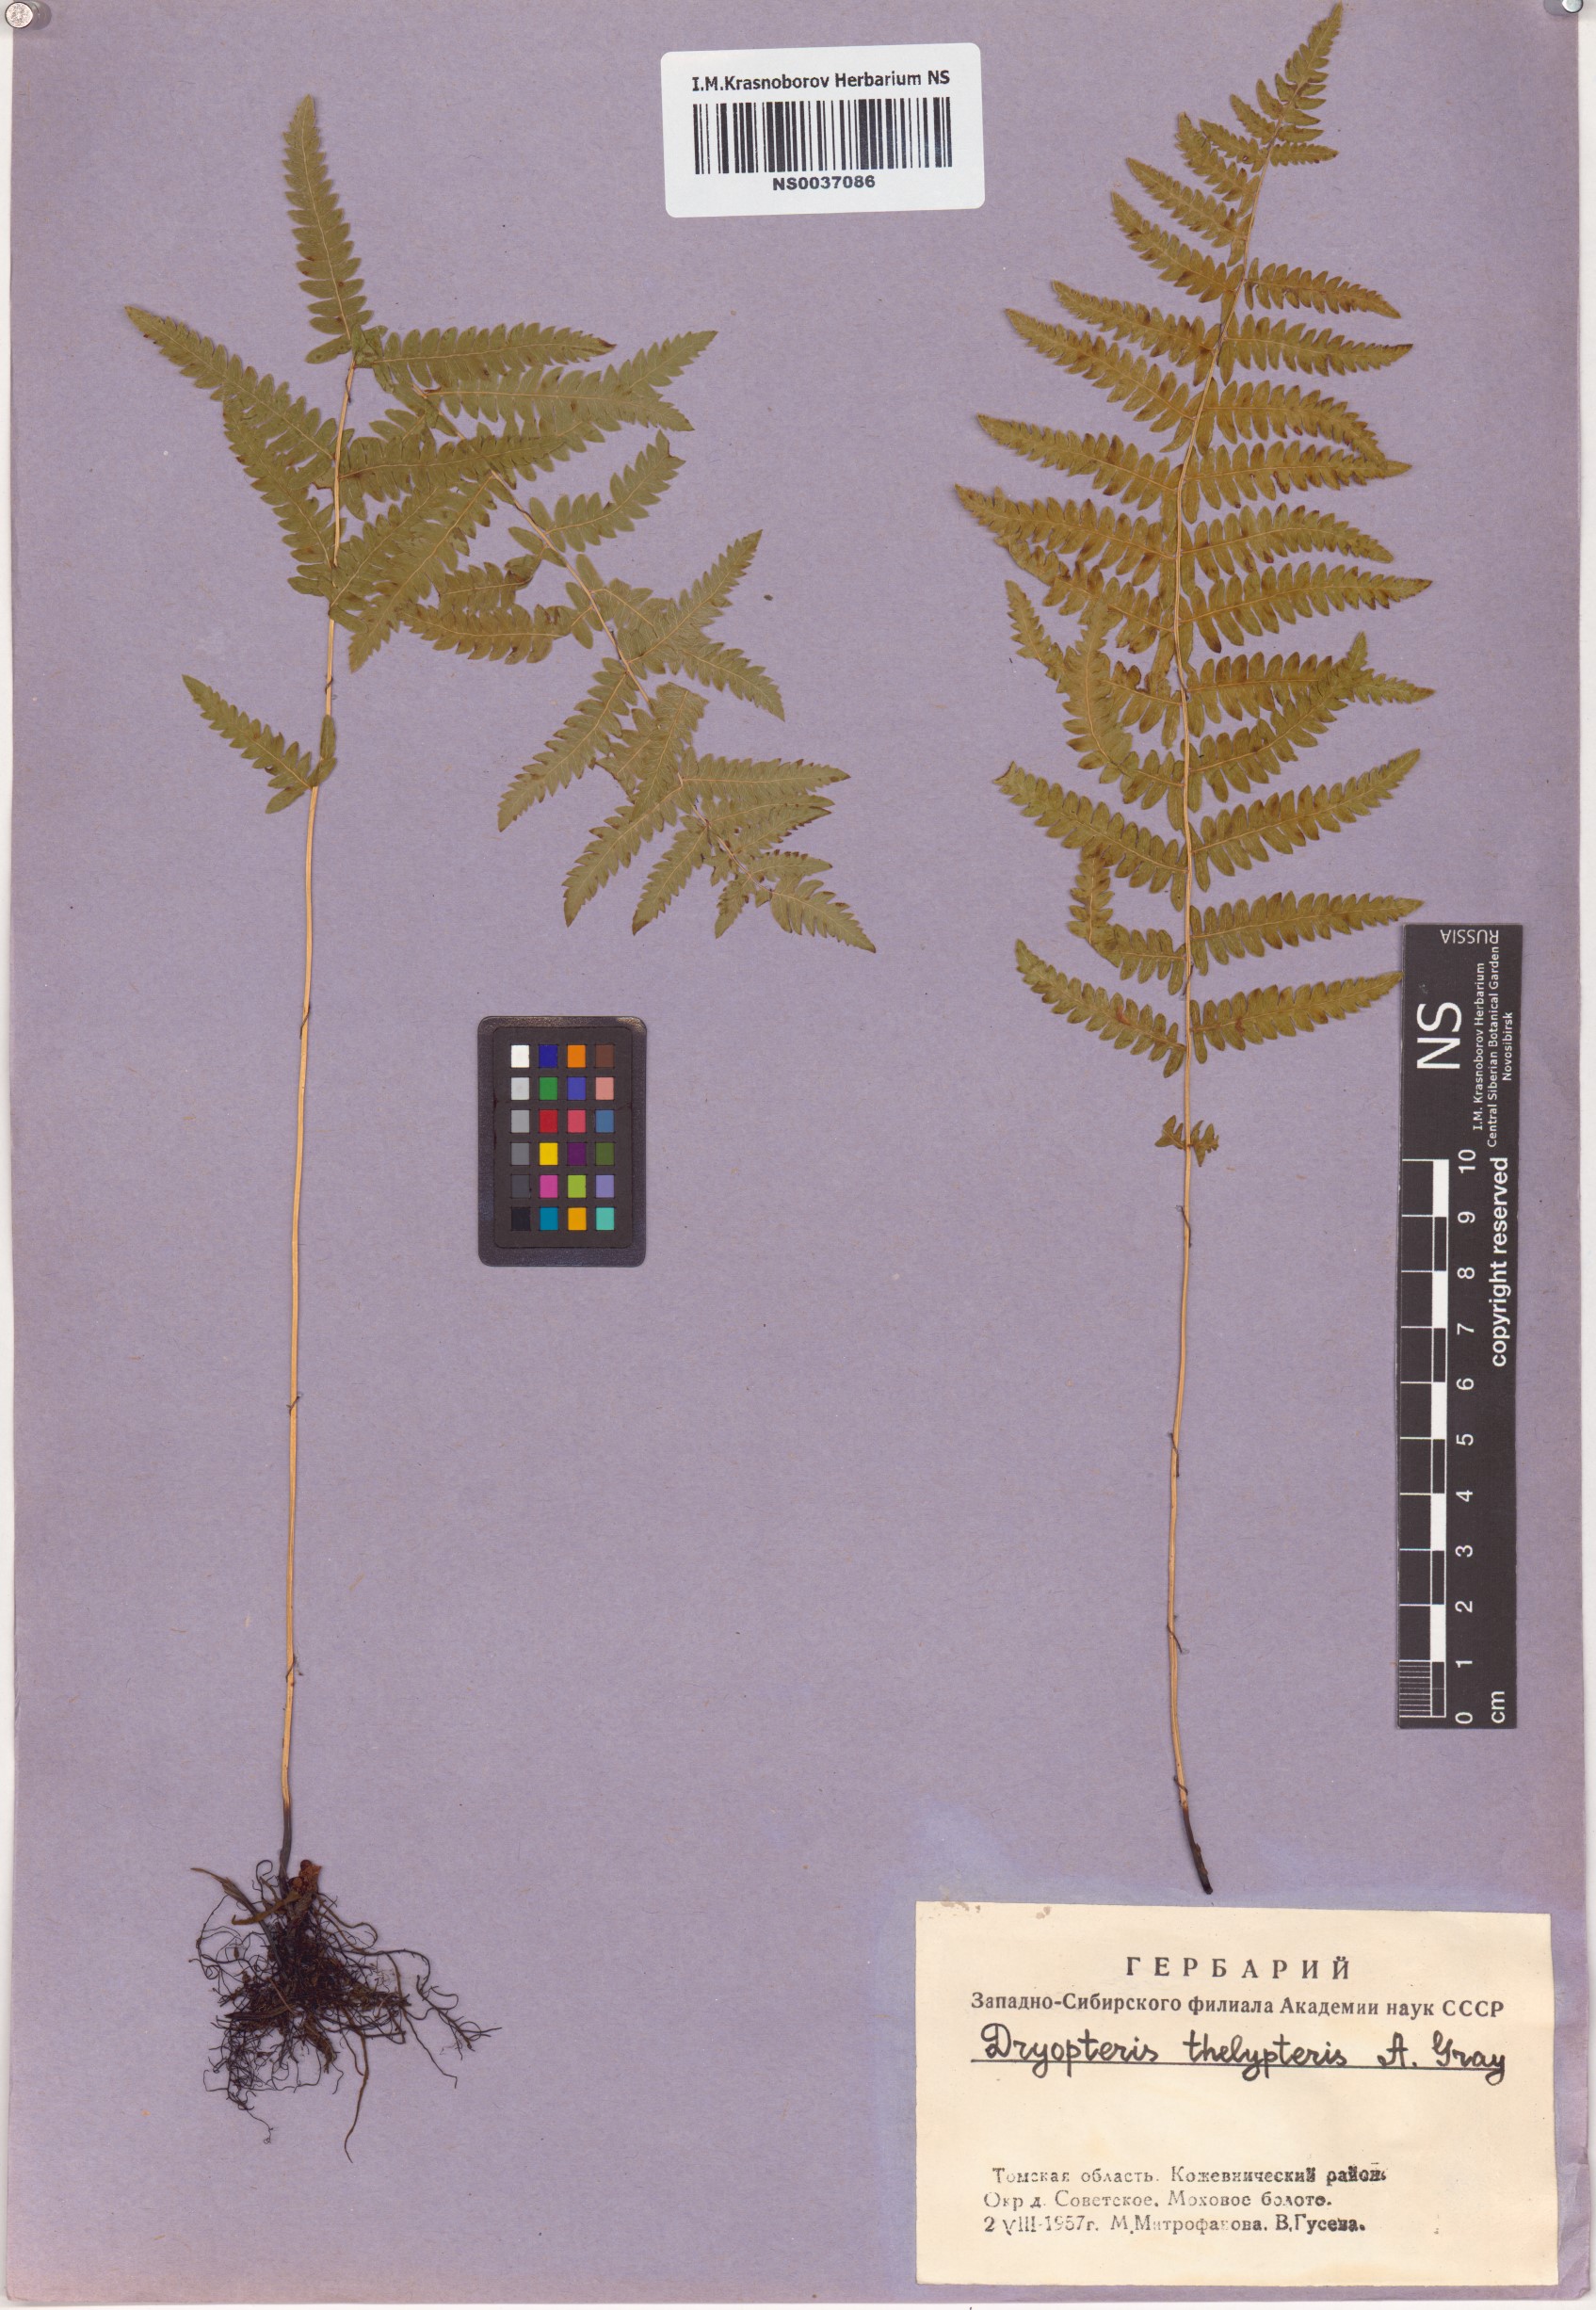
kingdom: Plantae
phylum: Tracheophyta
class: Polypodiopsida
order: Polypodiales
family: Thelypteridaceae
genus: Thelypteris
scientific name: Thelypteris palustris
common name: Marsh fern
